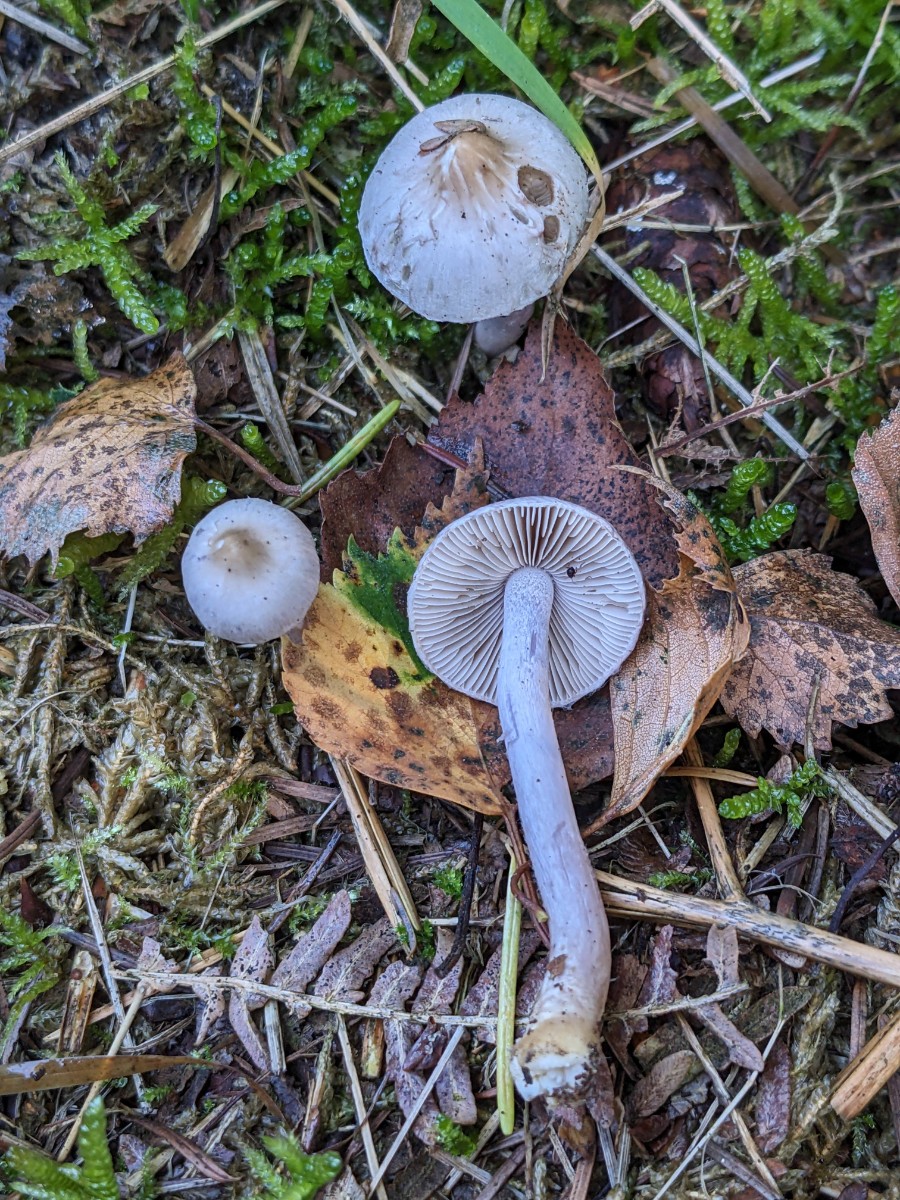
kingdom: Fungi
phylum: Basidiomycota
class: Agaricomycetes
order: Agaricales
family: Inocybaceae
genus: Inocybe
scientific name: Inocybe lilacinomaculata
